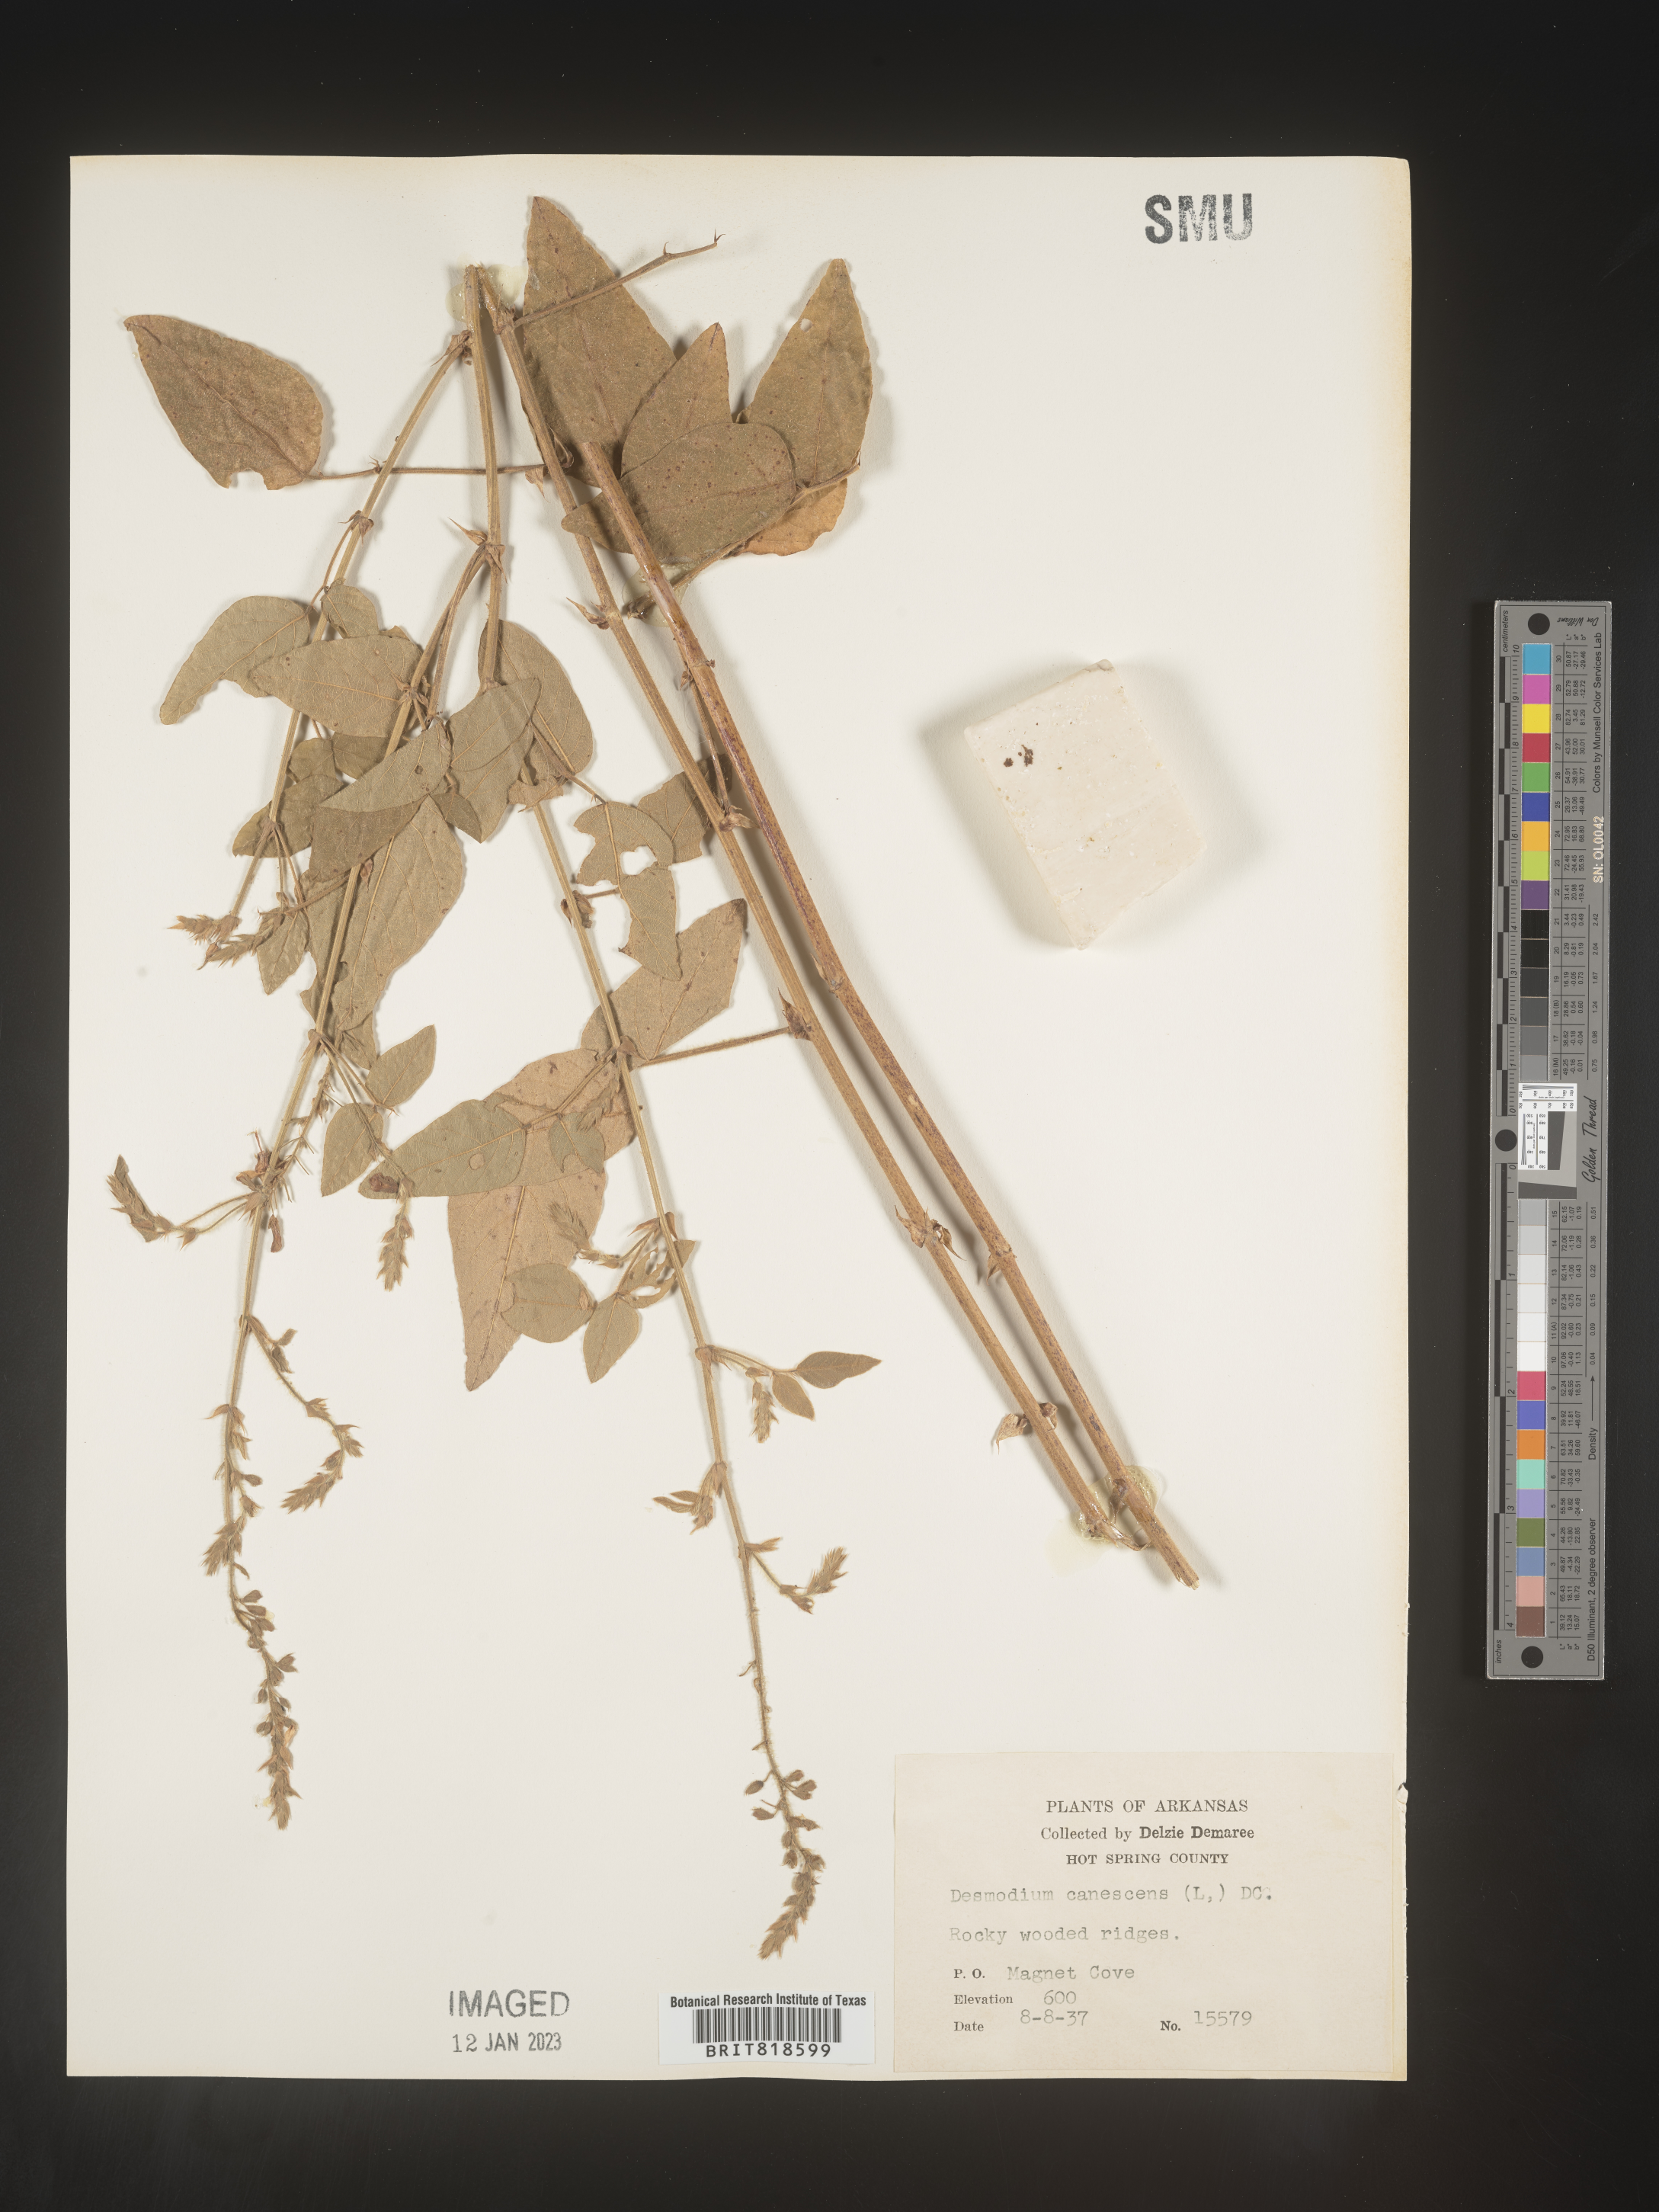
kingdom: Plantae
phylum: Tracheophyta
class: Magnoliopsida
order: Fabales
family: Fabaceae
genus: Desmodium
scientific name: Desmodium canescens
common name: Hoary tick-clover
